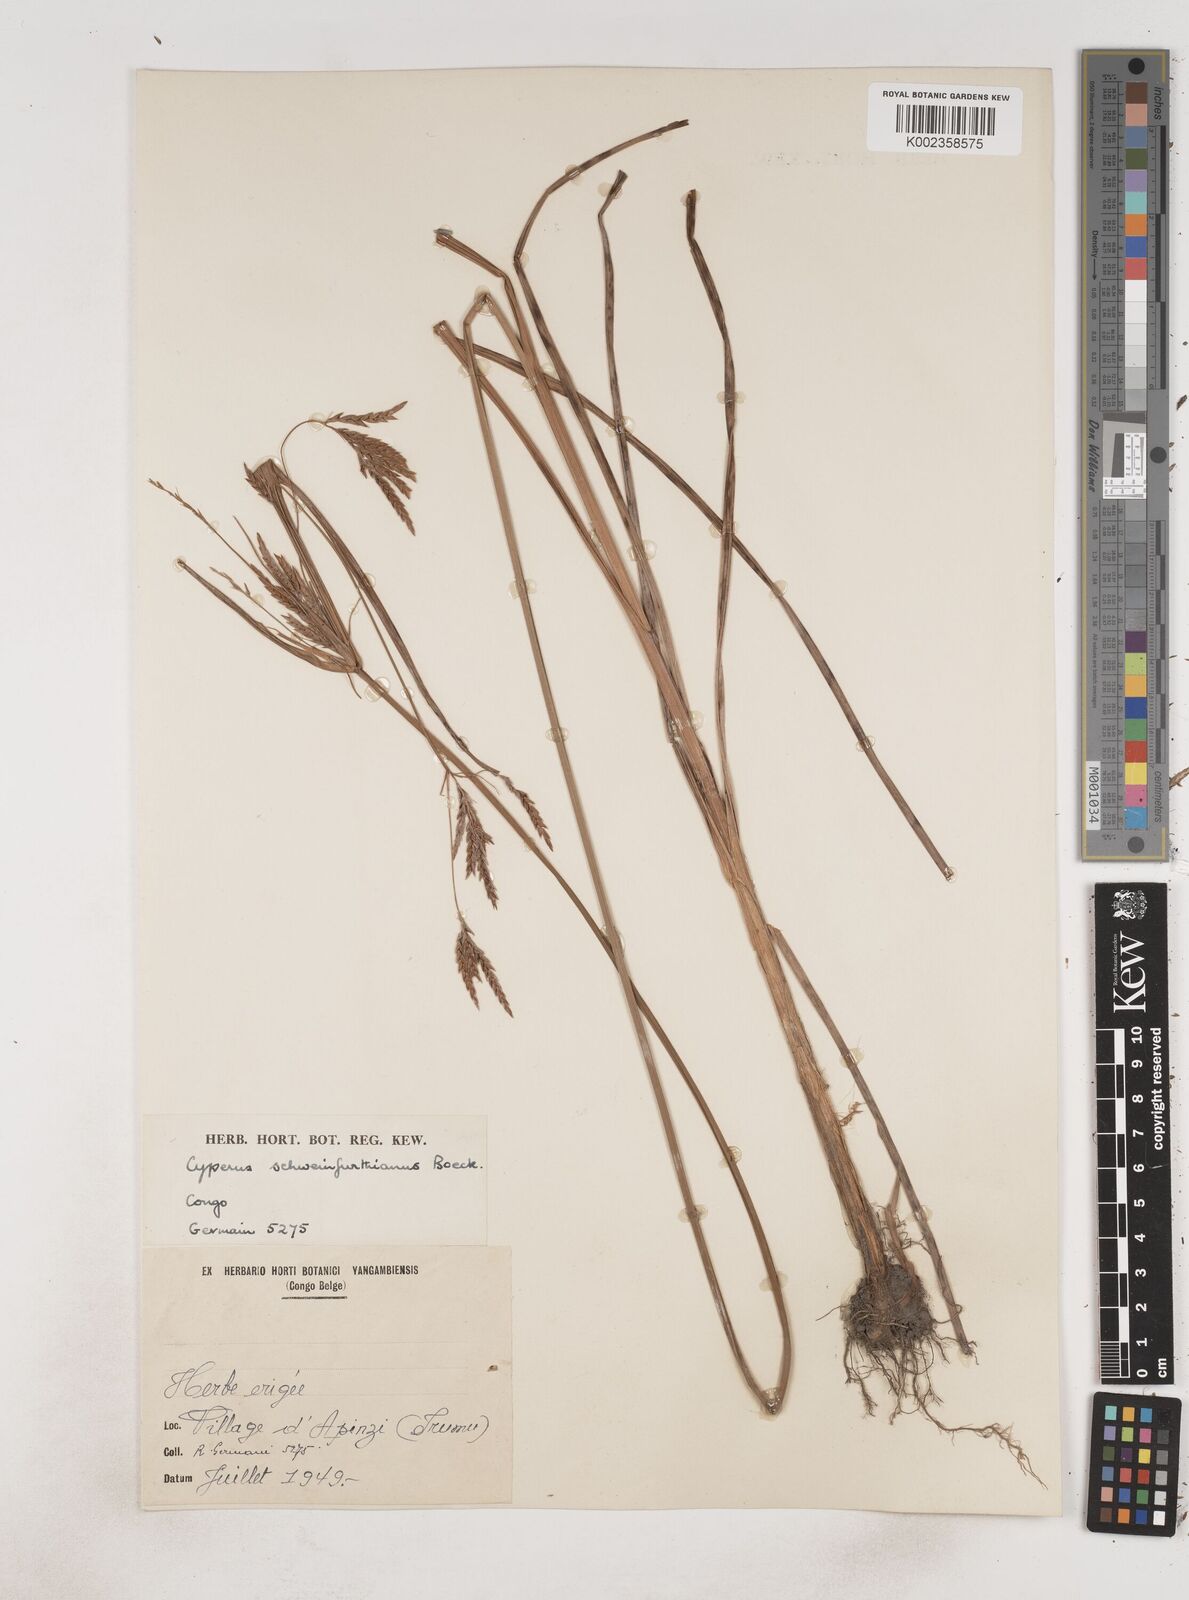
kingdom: Plantae
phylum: Tracheophyta
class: Liliopsida
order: Poales
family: Cyperaceae
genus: Cyperus
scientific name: Cyperus tenuiculmis
